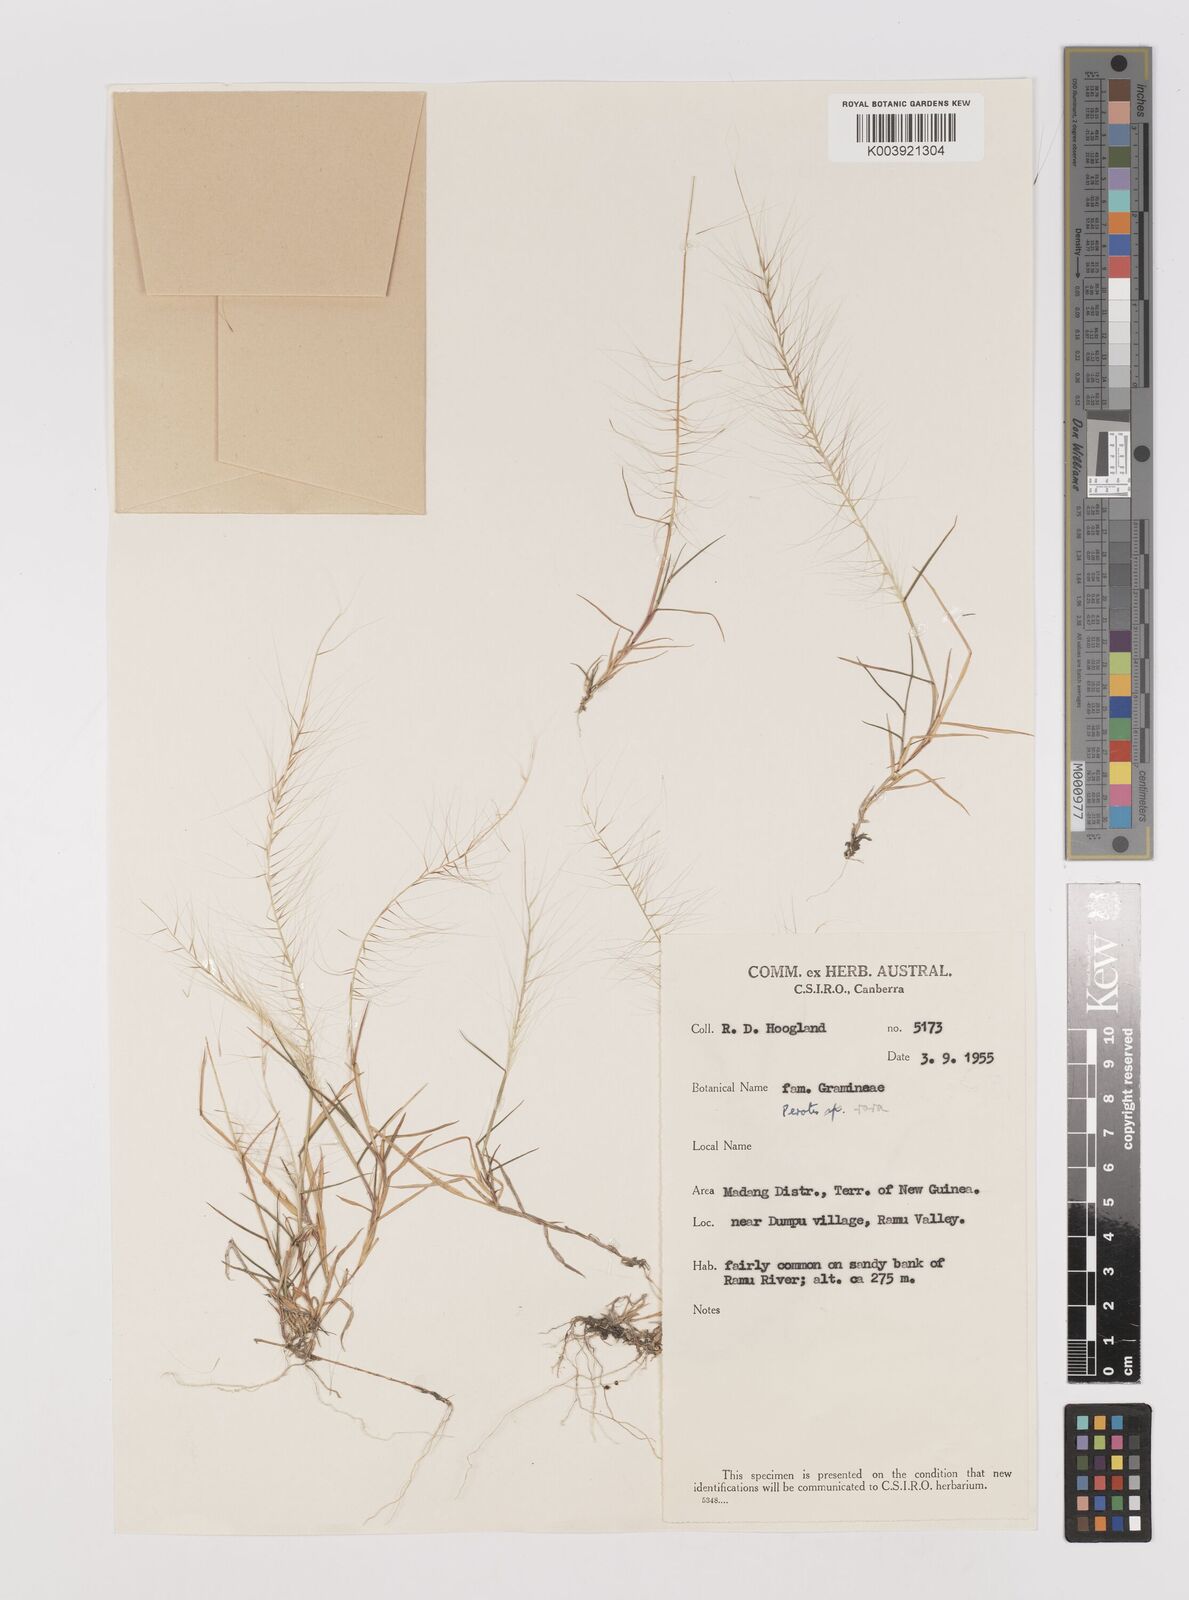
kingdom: Plantae
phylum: Tracheophyta
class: Liliopsida
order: Poales
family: Poaceae
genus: Perotis
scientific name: Perotis rara
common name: Comet grass
